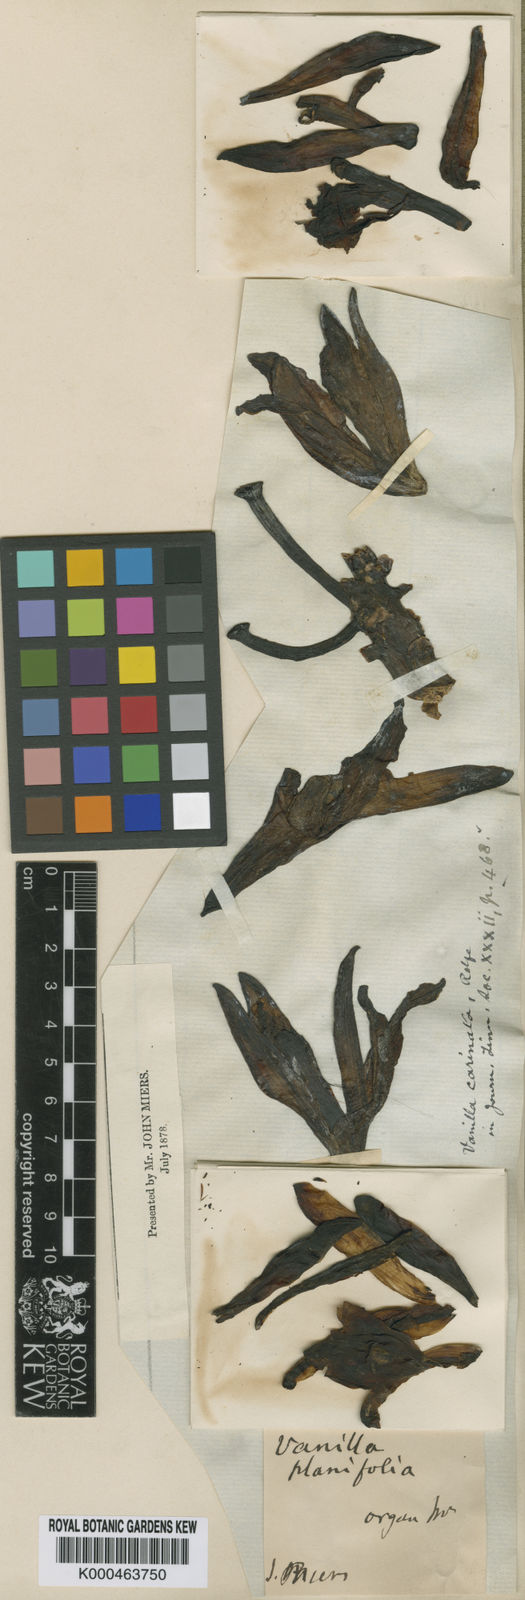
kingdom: Plantae
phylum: Tracheophyta
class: Liliopsida
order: Asparagales
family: Orchidaceae
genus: Vanilla
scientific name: Vanilla phaeantha
